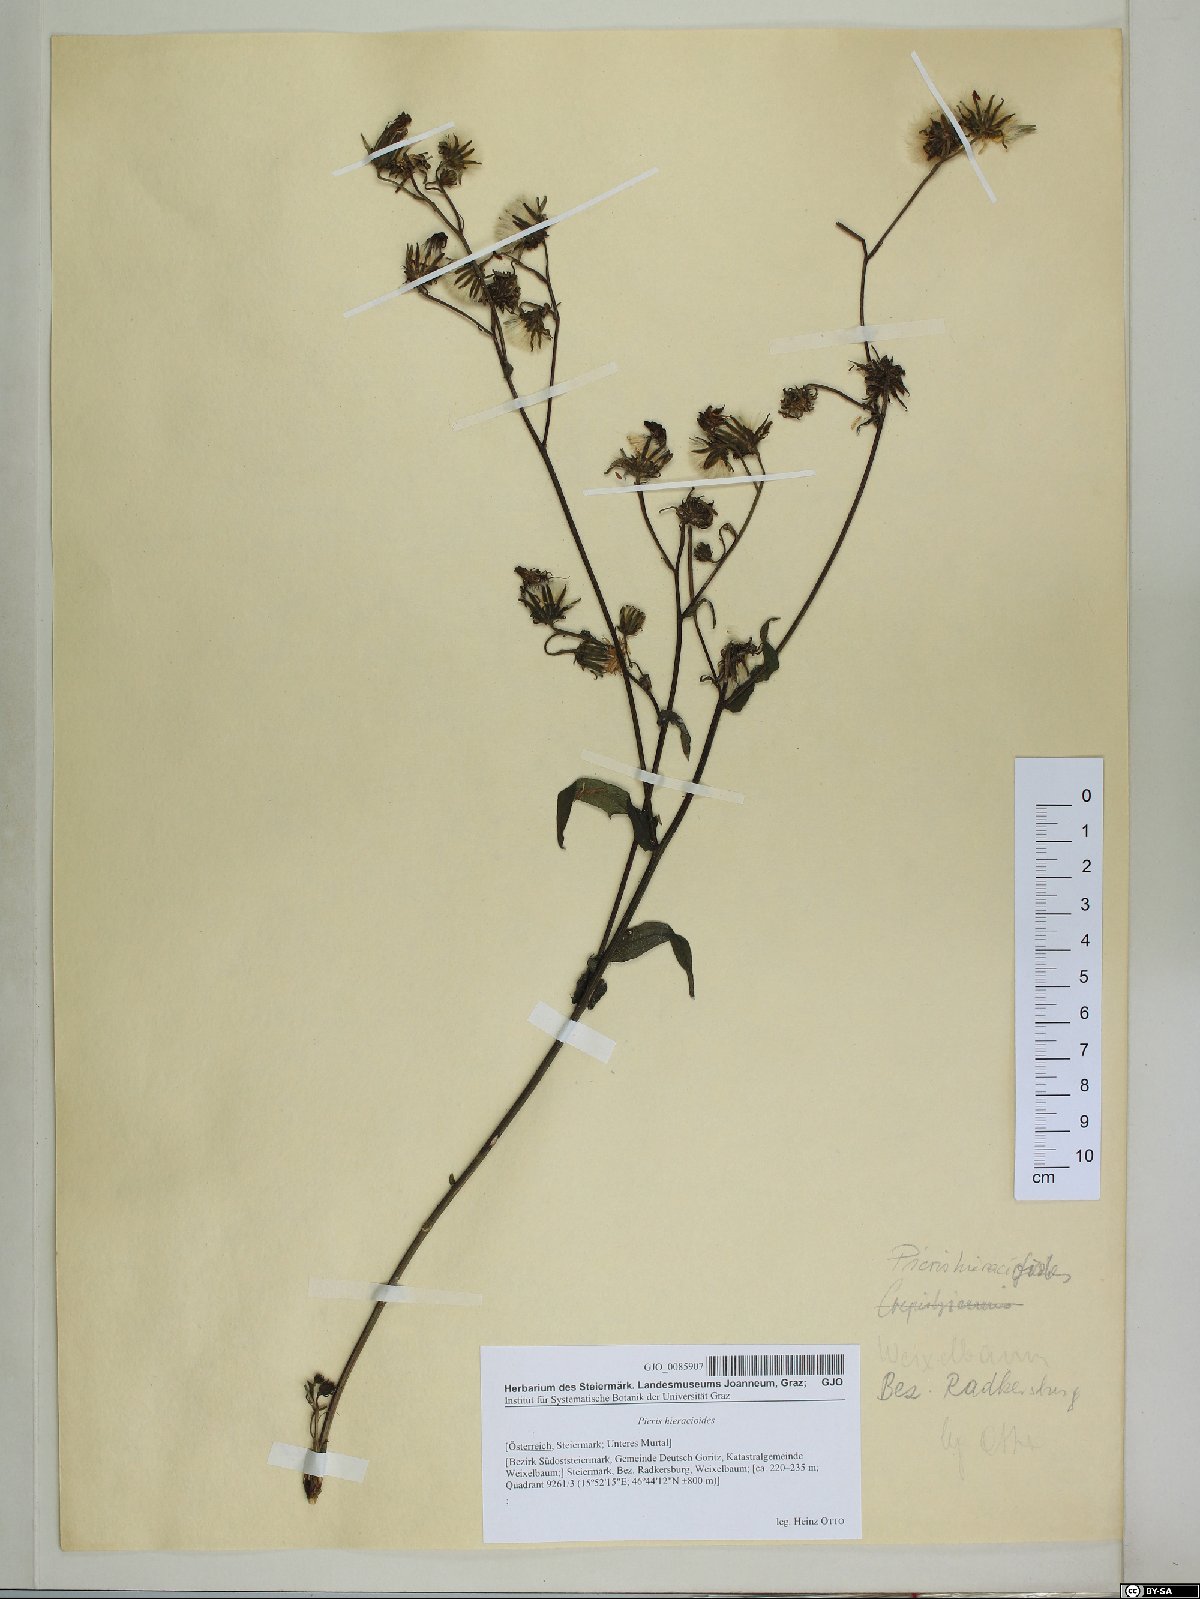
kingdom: Plantae
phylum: Tracheophyta
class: Magnoliopsida
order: Asterales
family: Asteraceae
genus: Picris
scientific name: Picris hieracioides
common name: Hawkweed oxtongue
